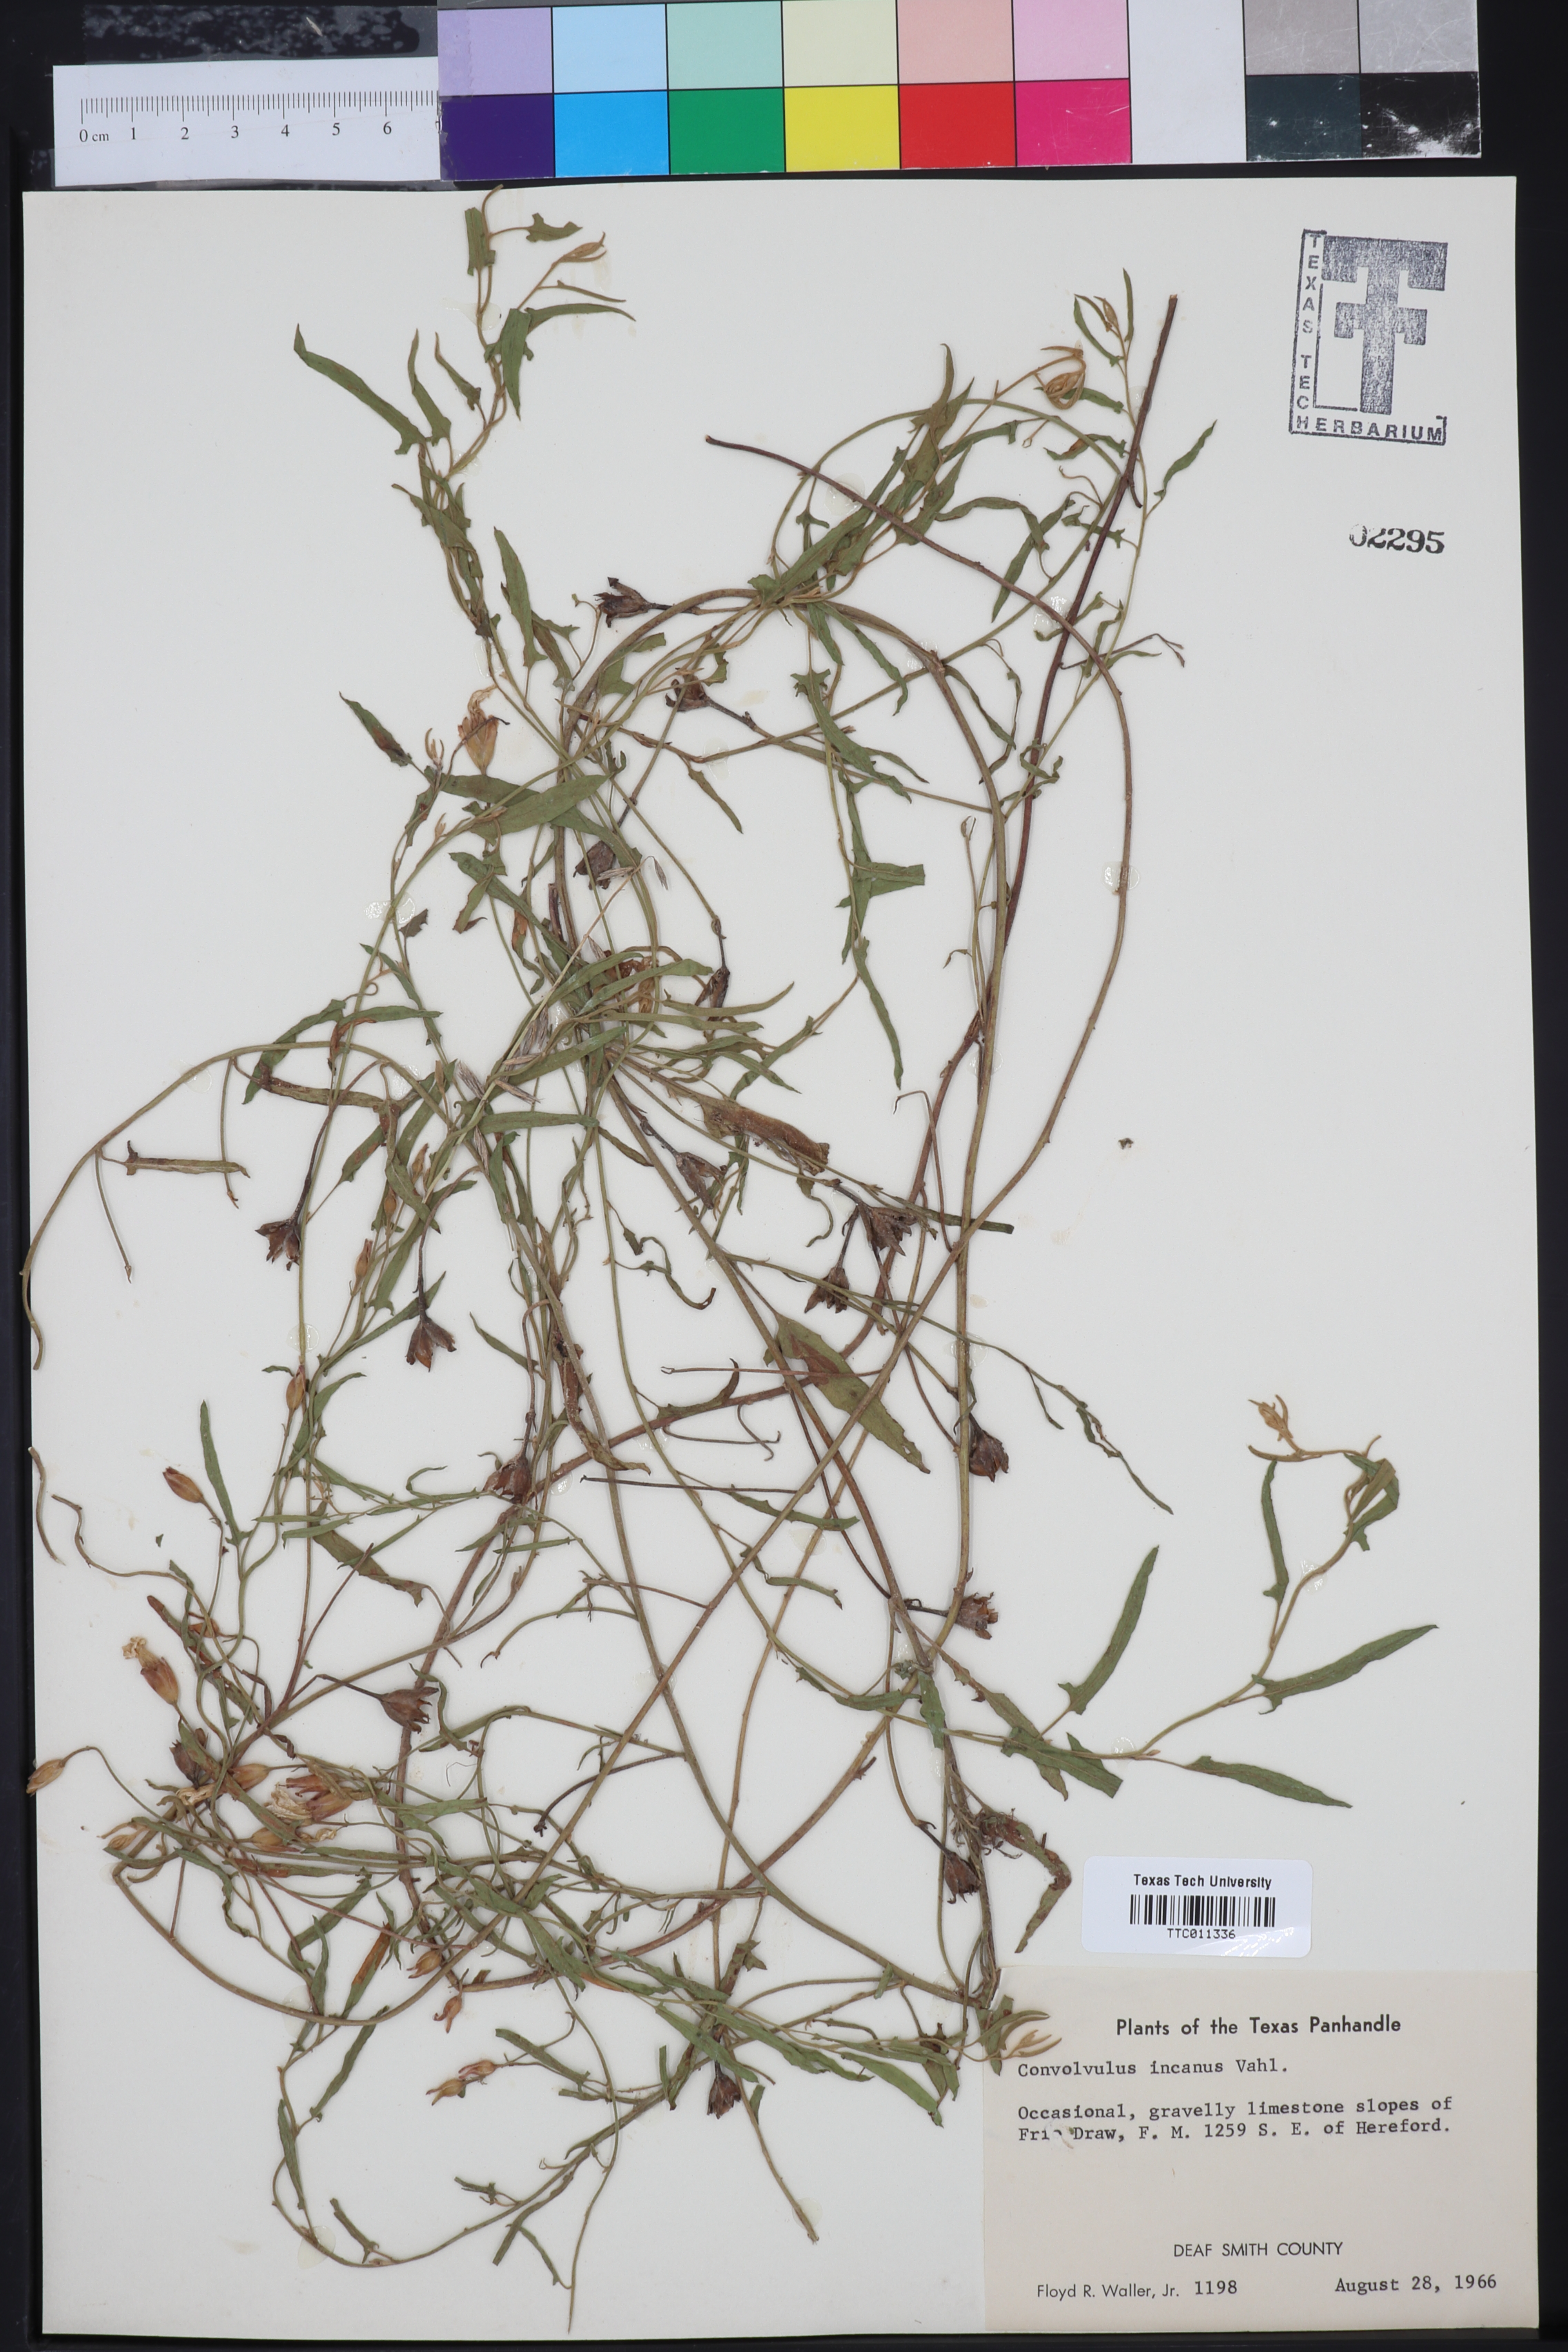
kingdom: Plantae
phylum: Tracheophyta
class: Magnoliopsida
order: Solanales
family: Convolvulaceae
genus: Convolvulus
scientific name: Convolvulus hermanniae
